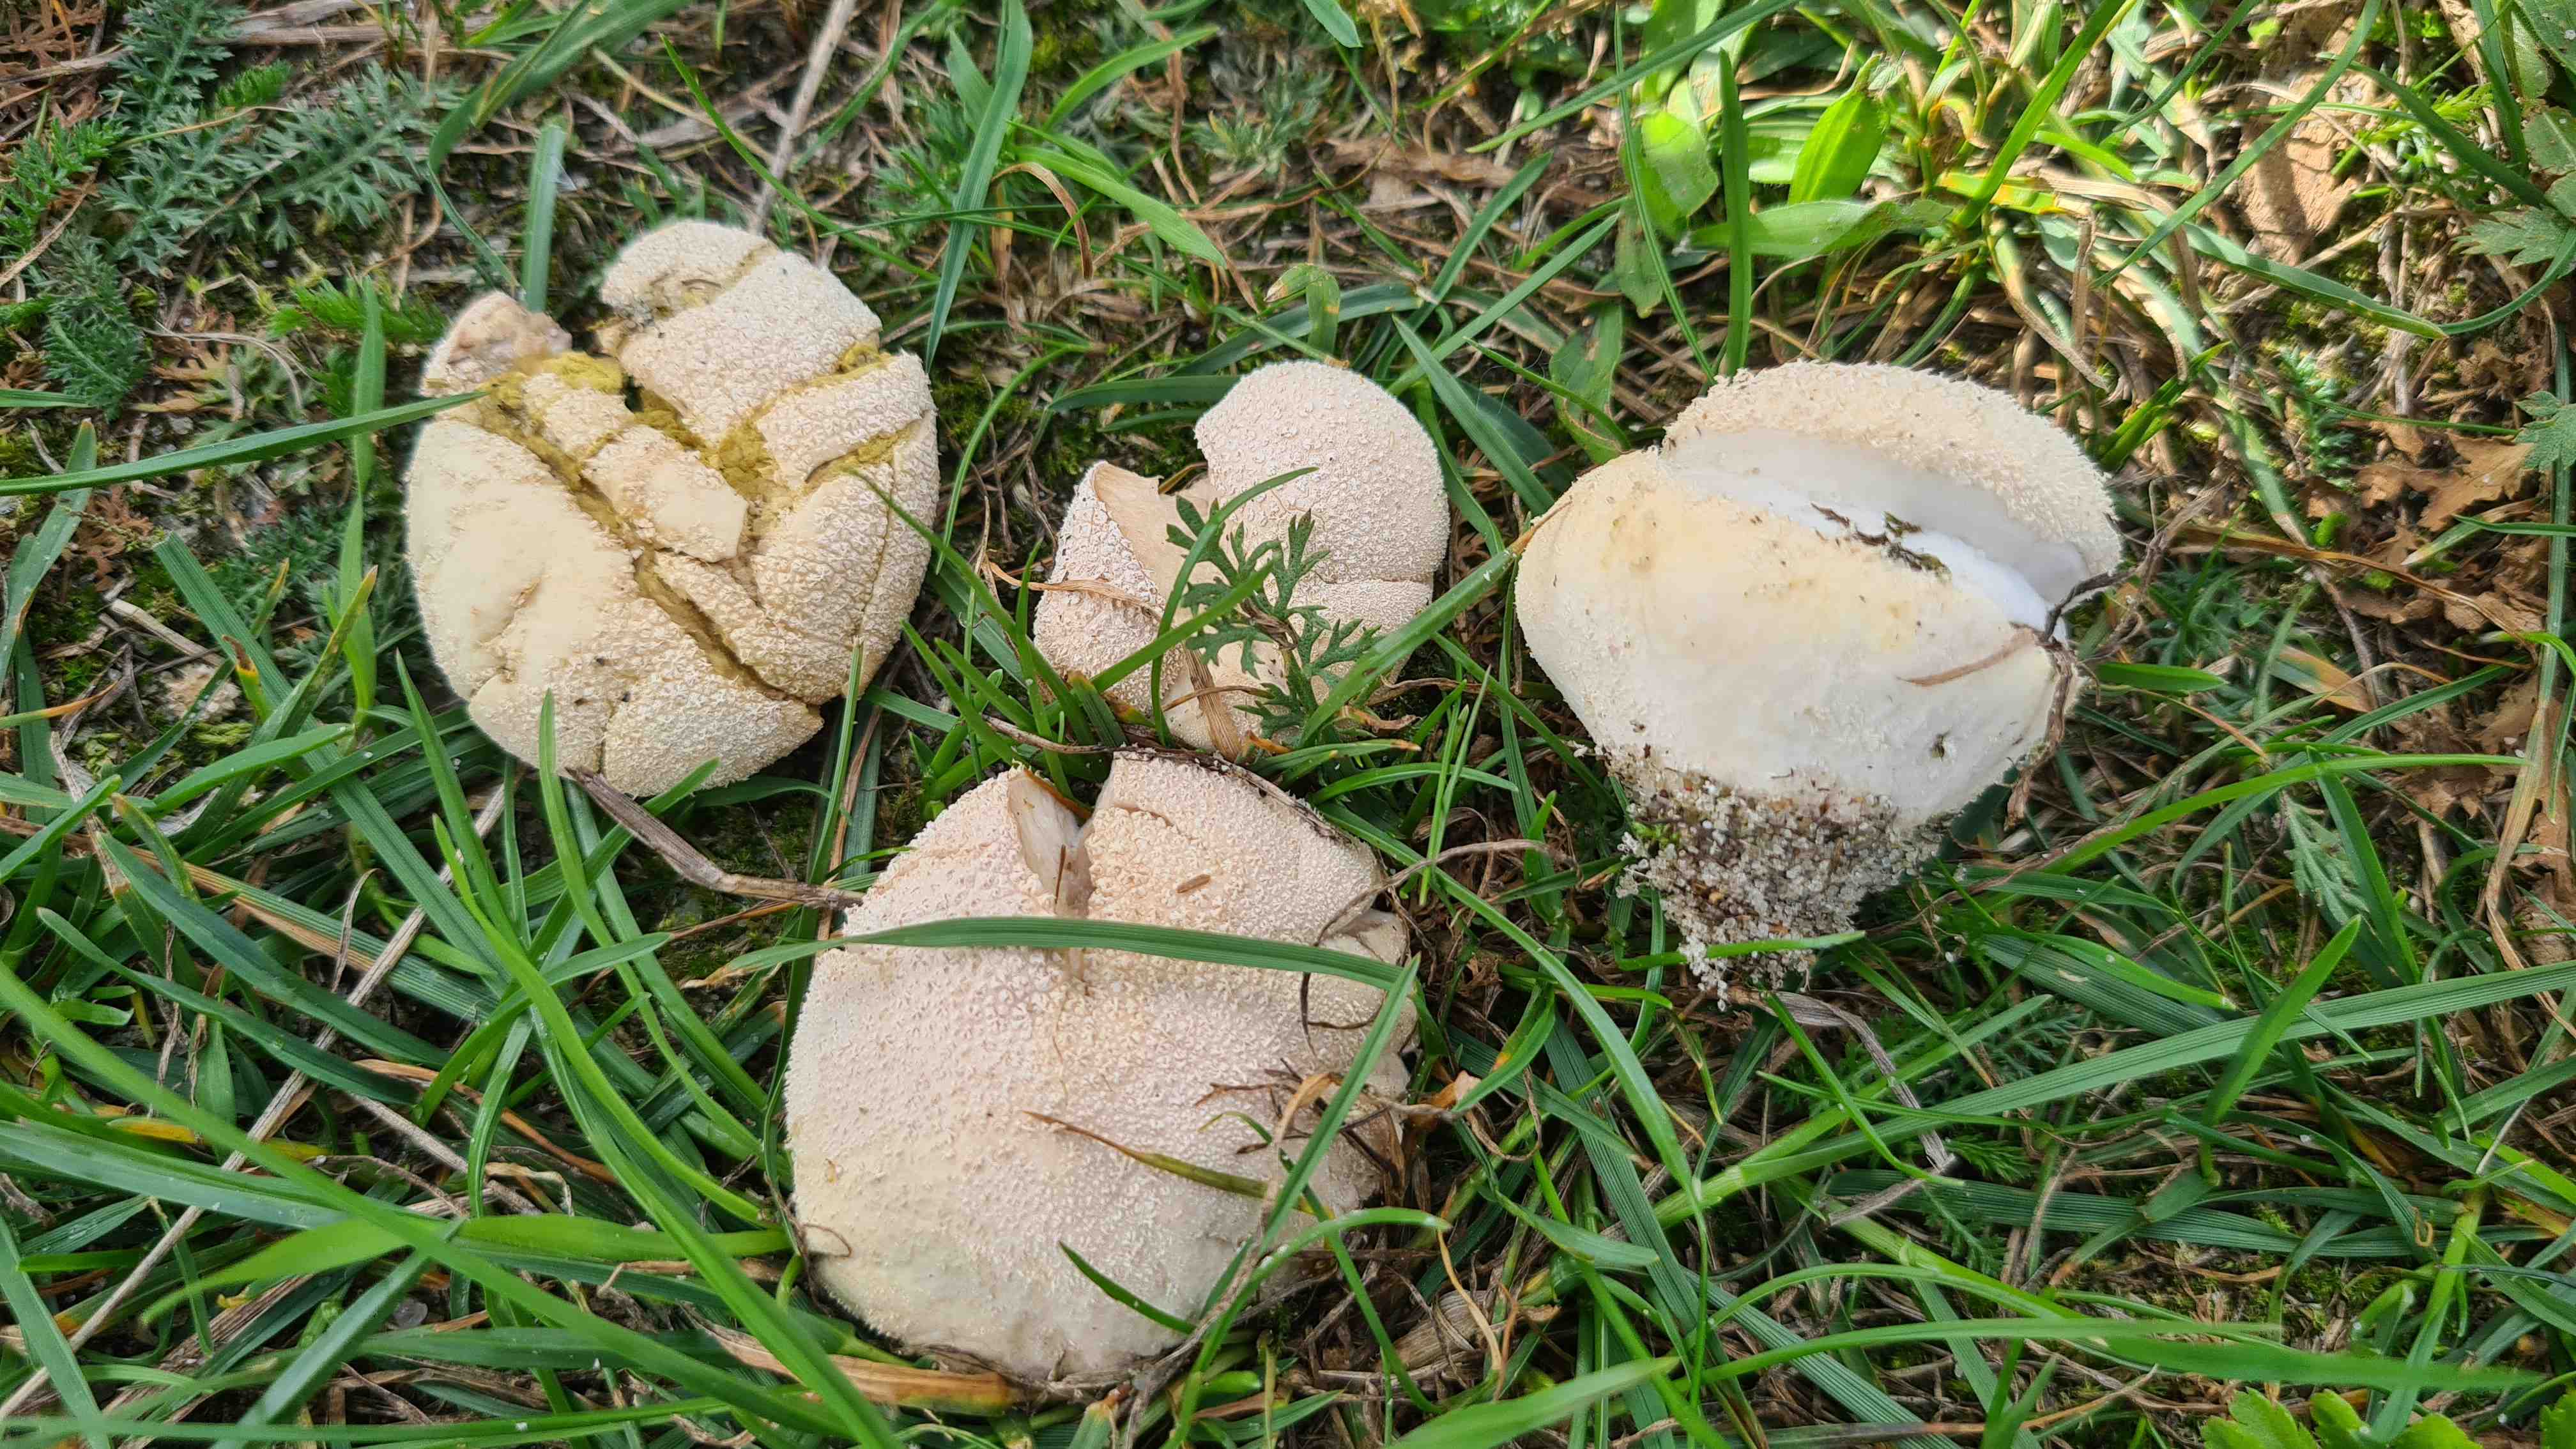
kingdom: Fungi
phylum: Basidiomycota
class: Agaricomycetes
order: Agaricales
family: Lycoperdaceae
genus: Lycoperdon
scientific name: Lycoperdon pratense
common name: flad støvbold
